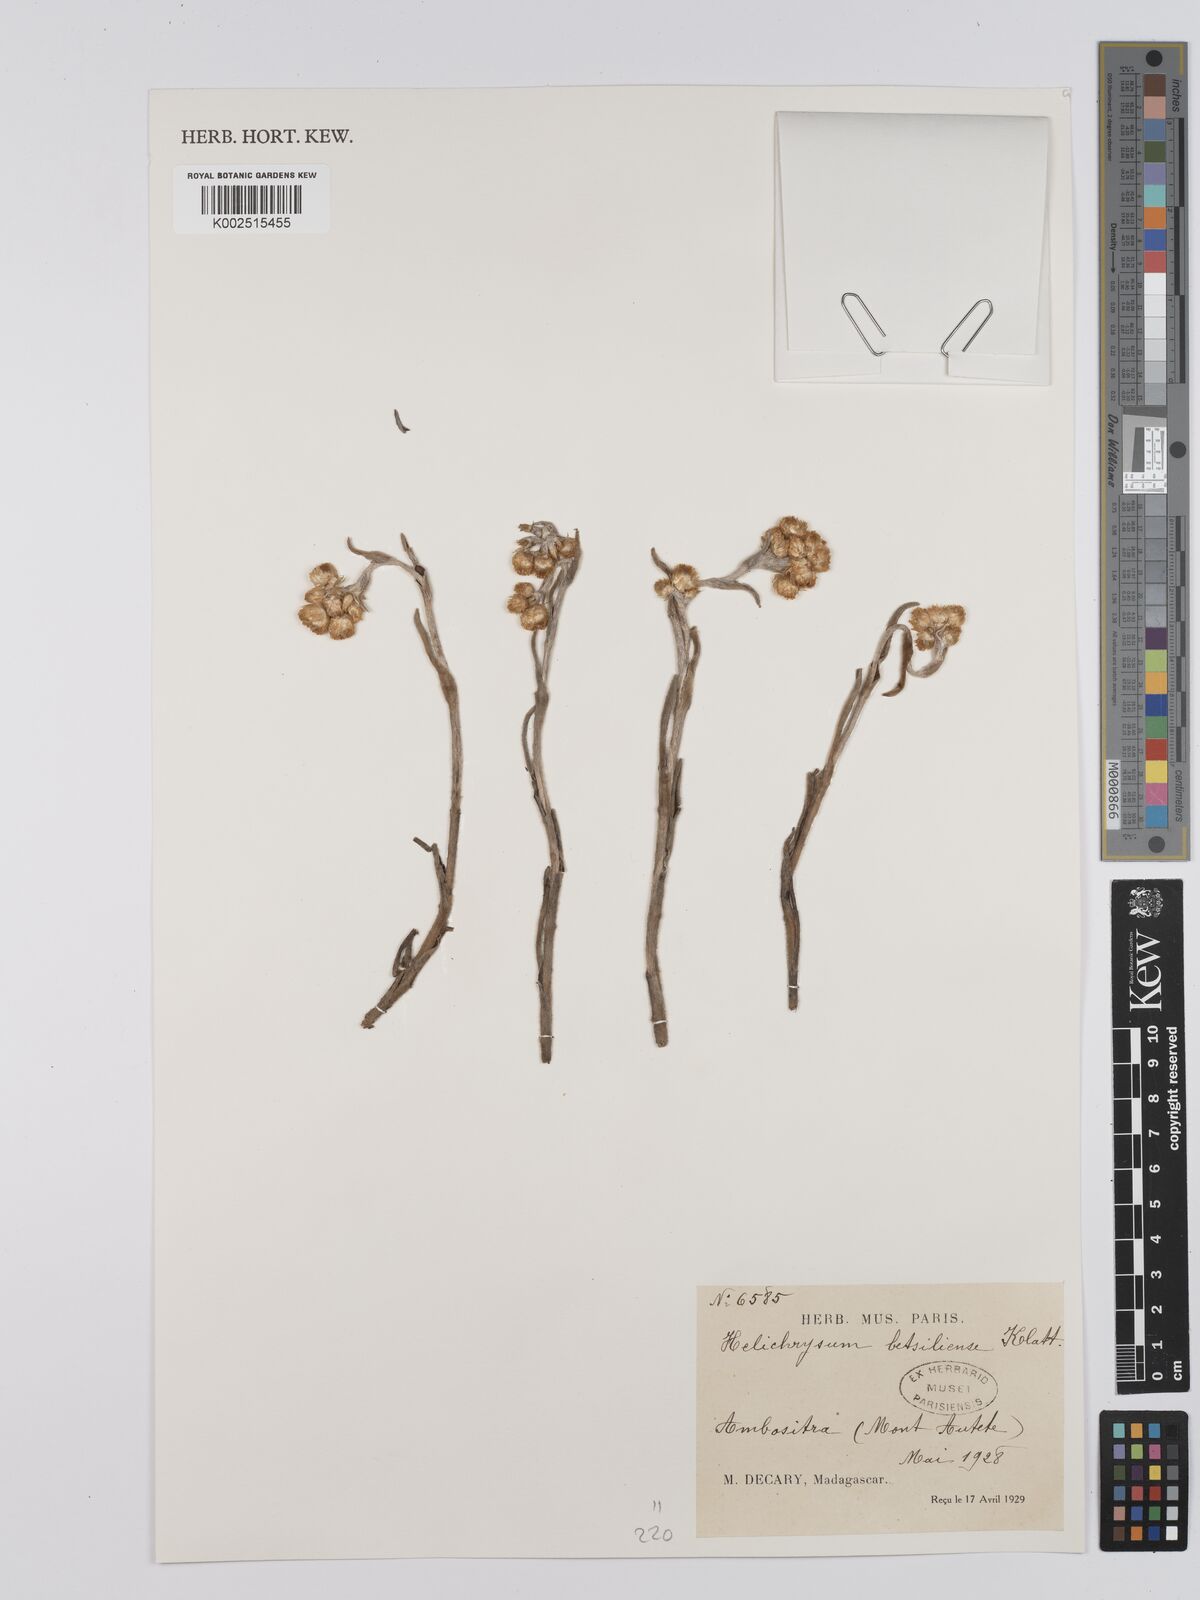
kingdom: Plantae
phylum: Tracheophyta
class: Magnoliopsida
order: Asterales
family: Asteraceae
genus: Helichrysum
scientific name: Helichrysum betsiliense
